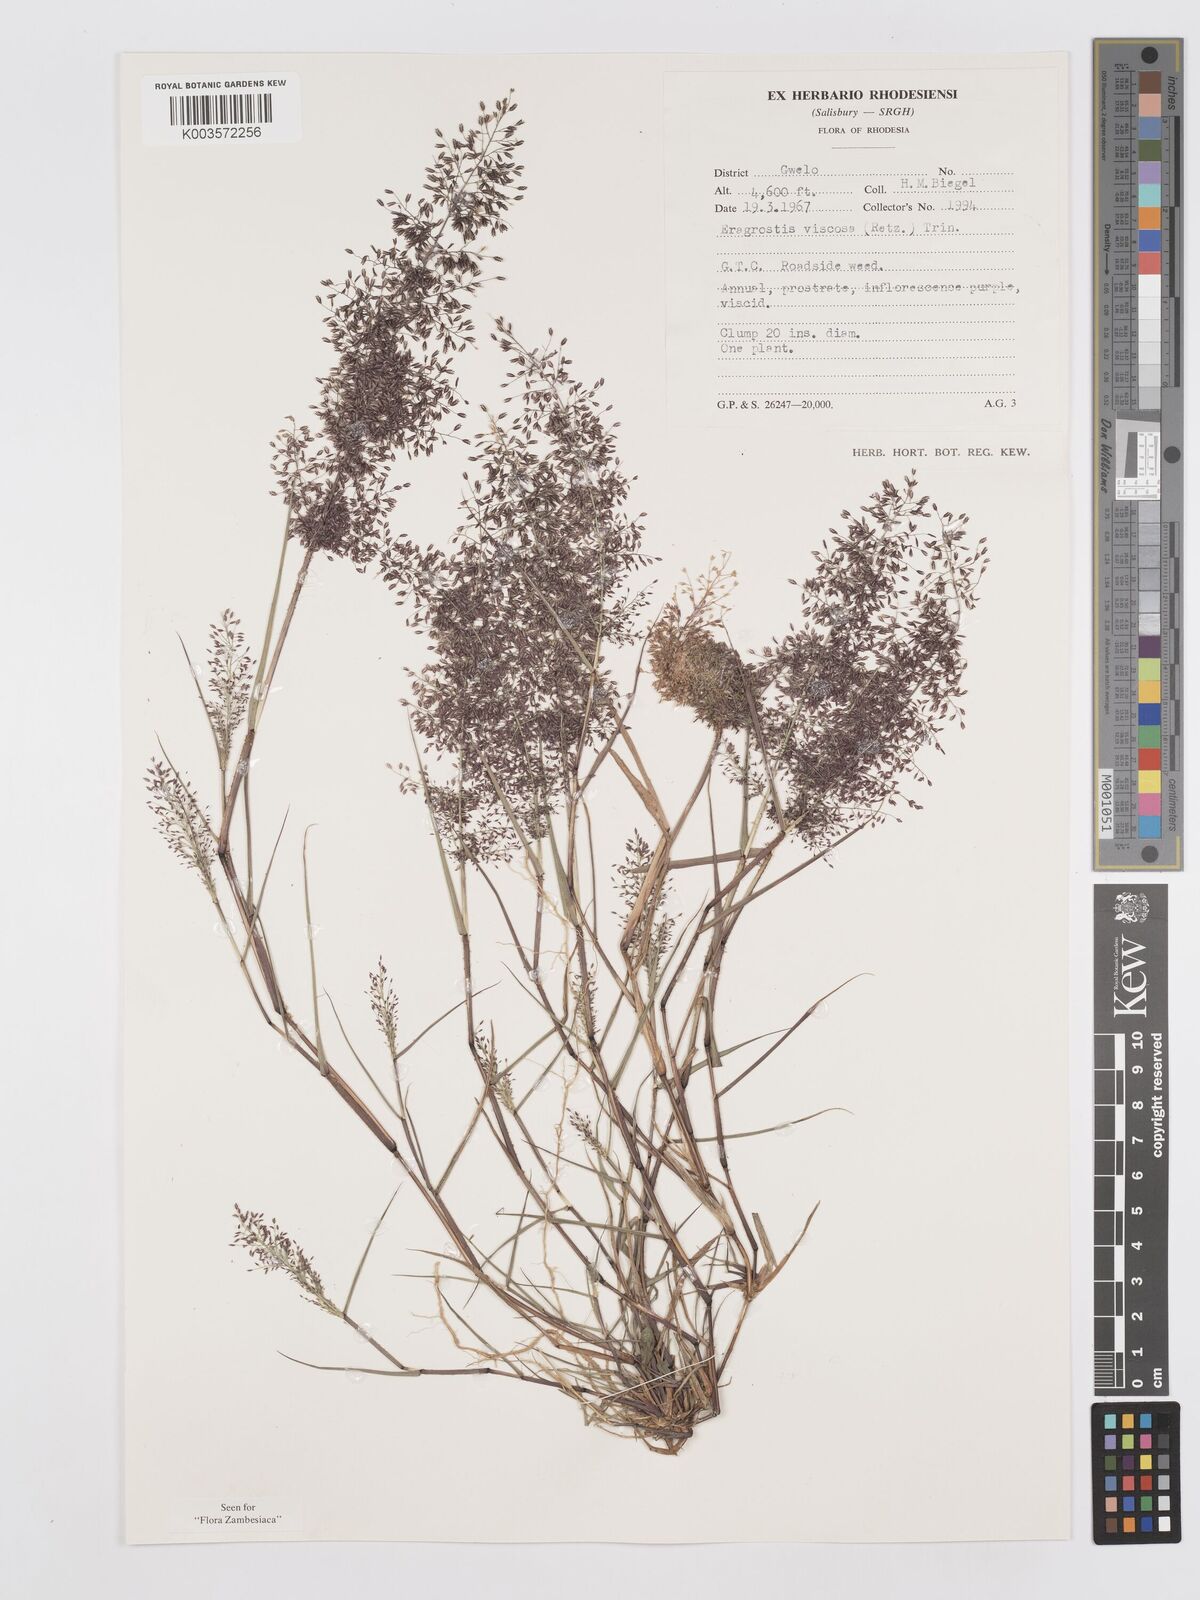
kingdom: Plantae
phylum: Tracheophyta
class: Liliopsida
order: Poales
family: Poaceae
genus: Eragrostis
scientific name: Eragrostis
